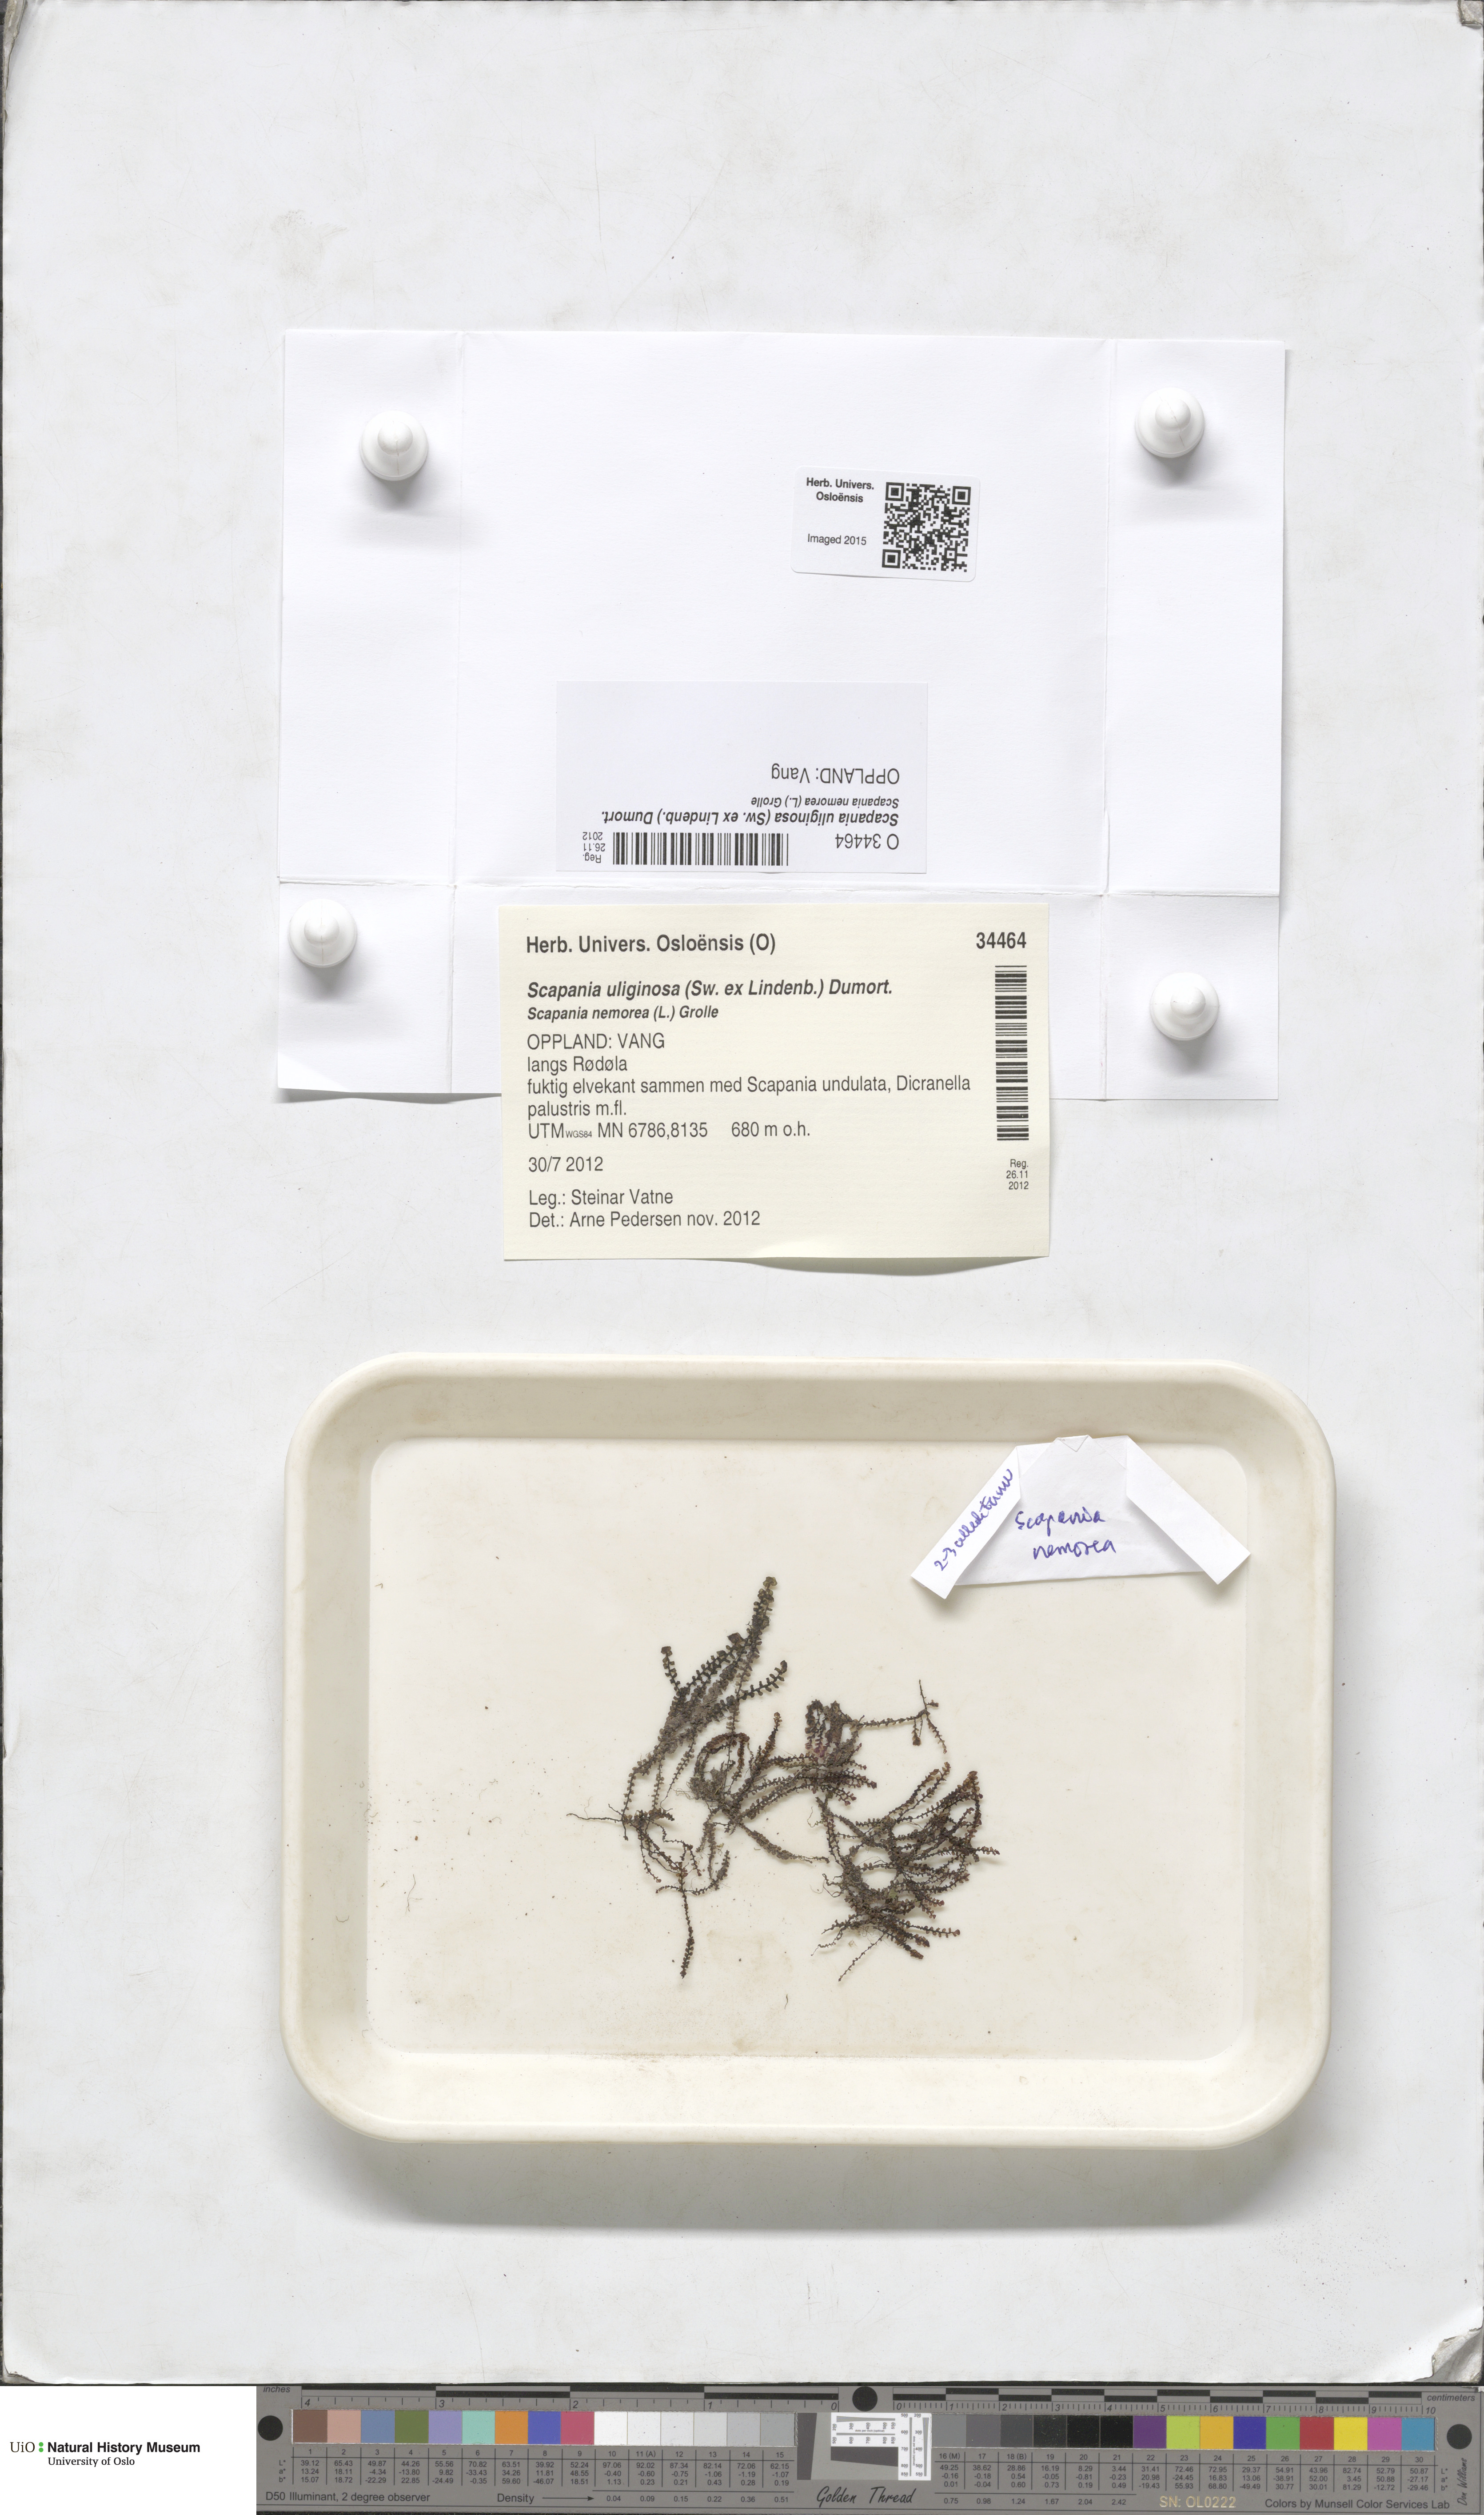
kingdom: Plantae
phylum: Marchantiophyta
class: Jungermanniopsida
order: Jungermanniales
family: Scapaniaceae
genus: Scapania
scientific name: Scapania uliginosa
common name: Marsh earwort
